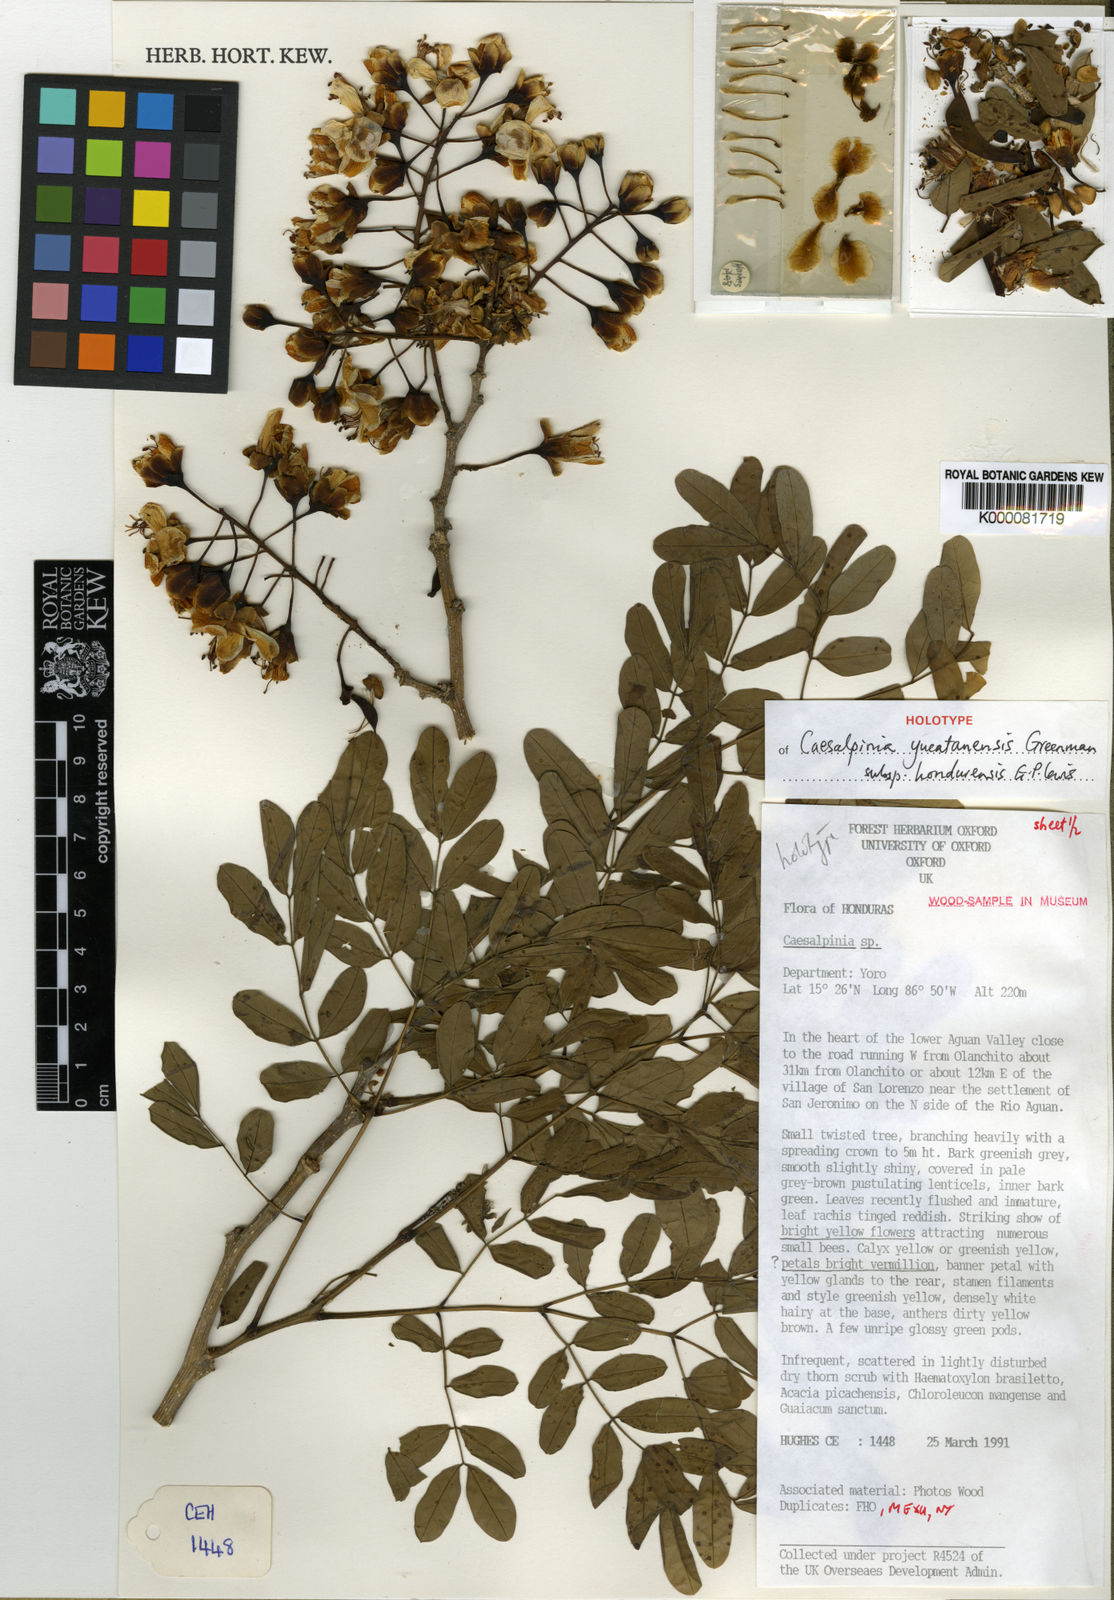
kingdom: Plantae
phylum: Tracheophyta
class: Magnoliopsida
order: Fabales
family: Fabaceae
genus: Erythrostemon
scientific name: Erythrostemon yucatanensis
